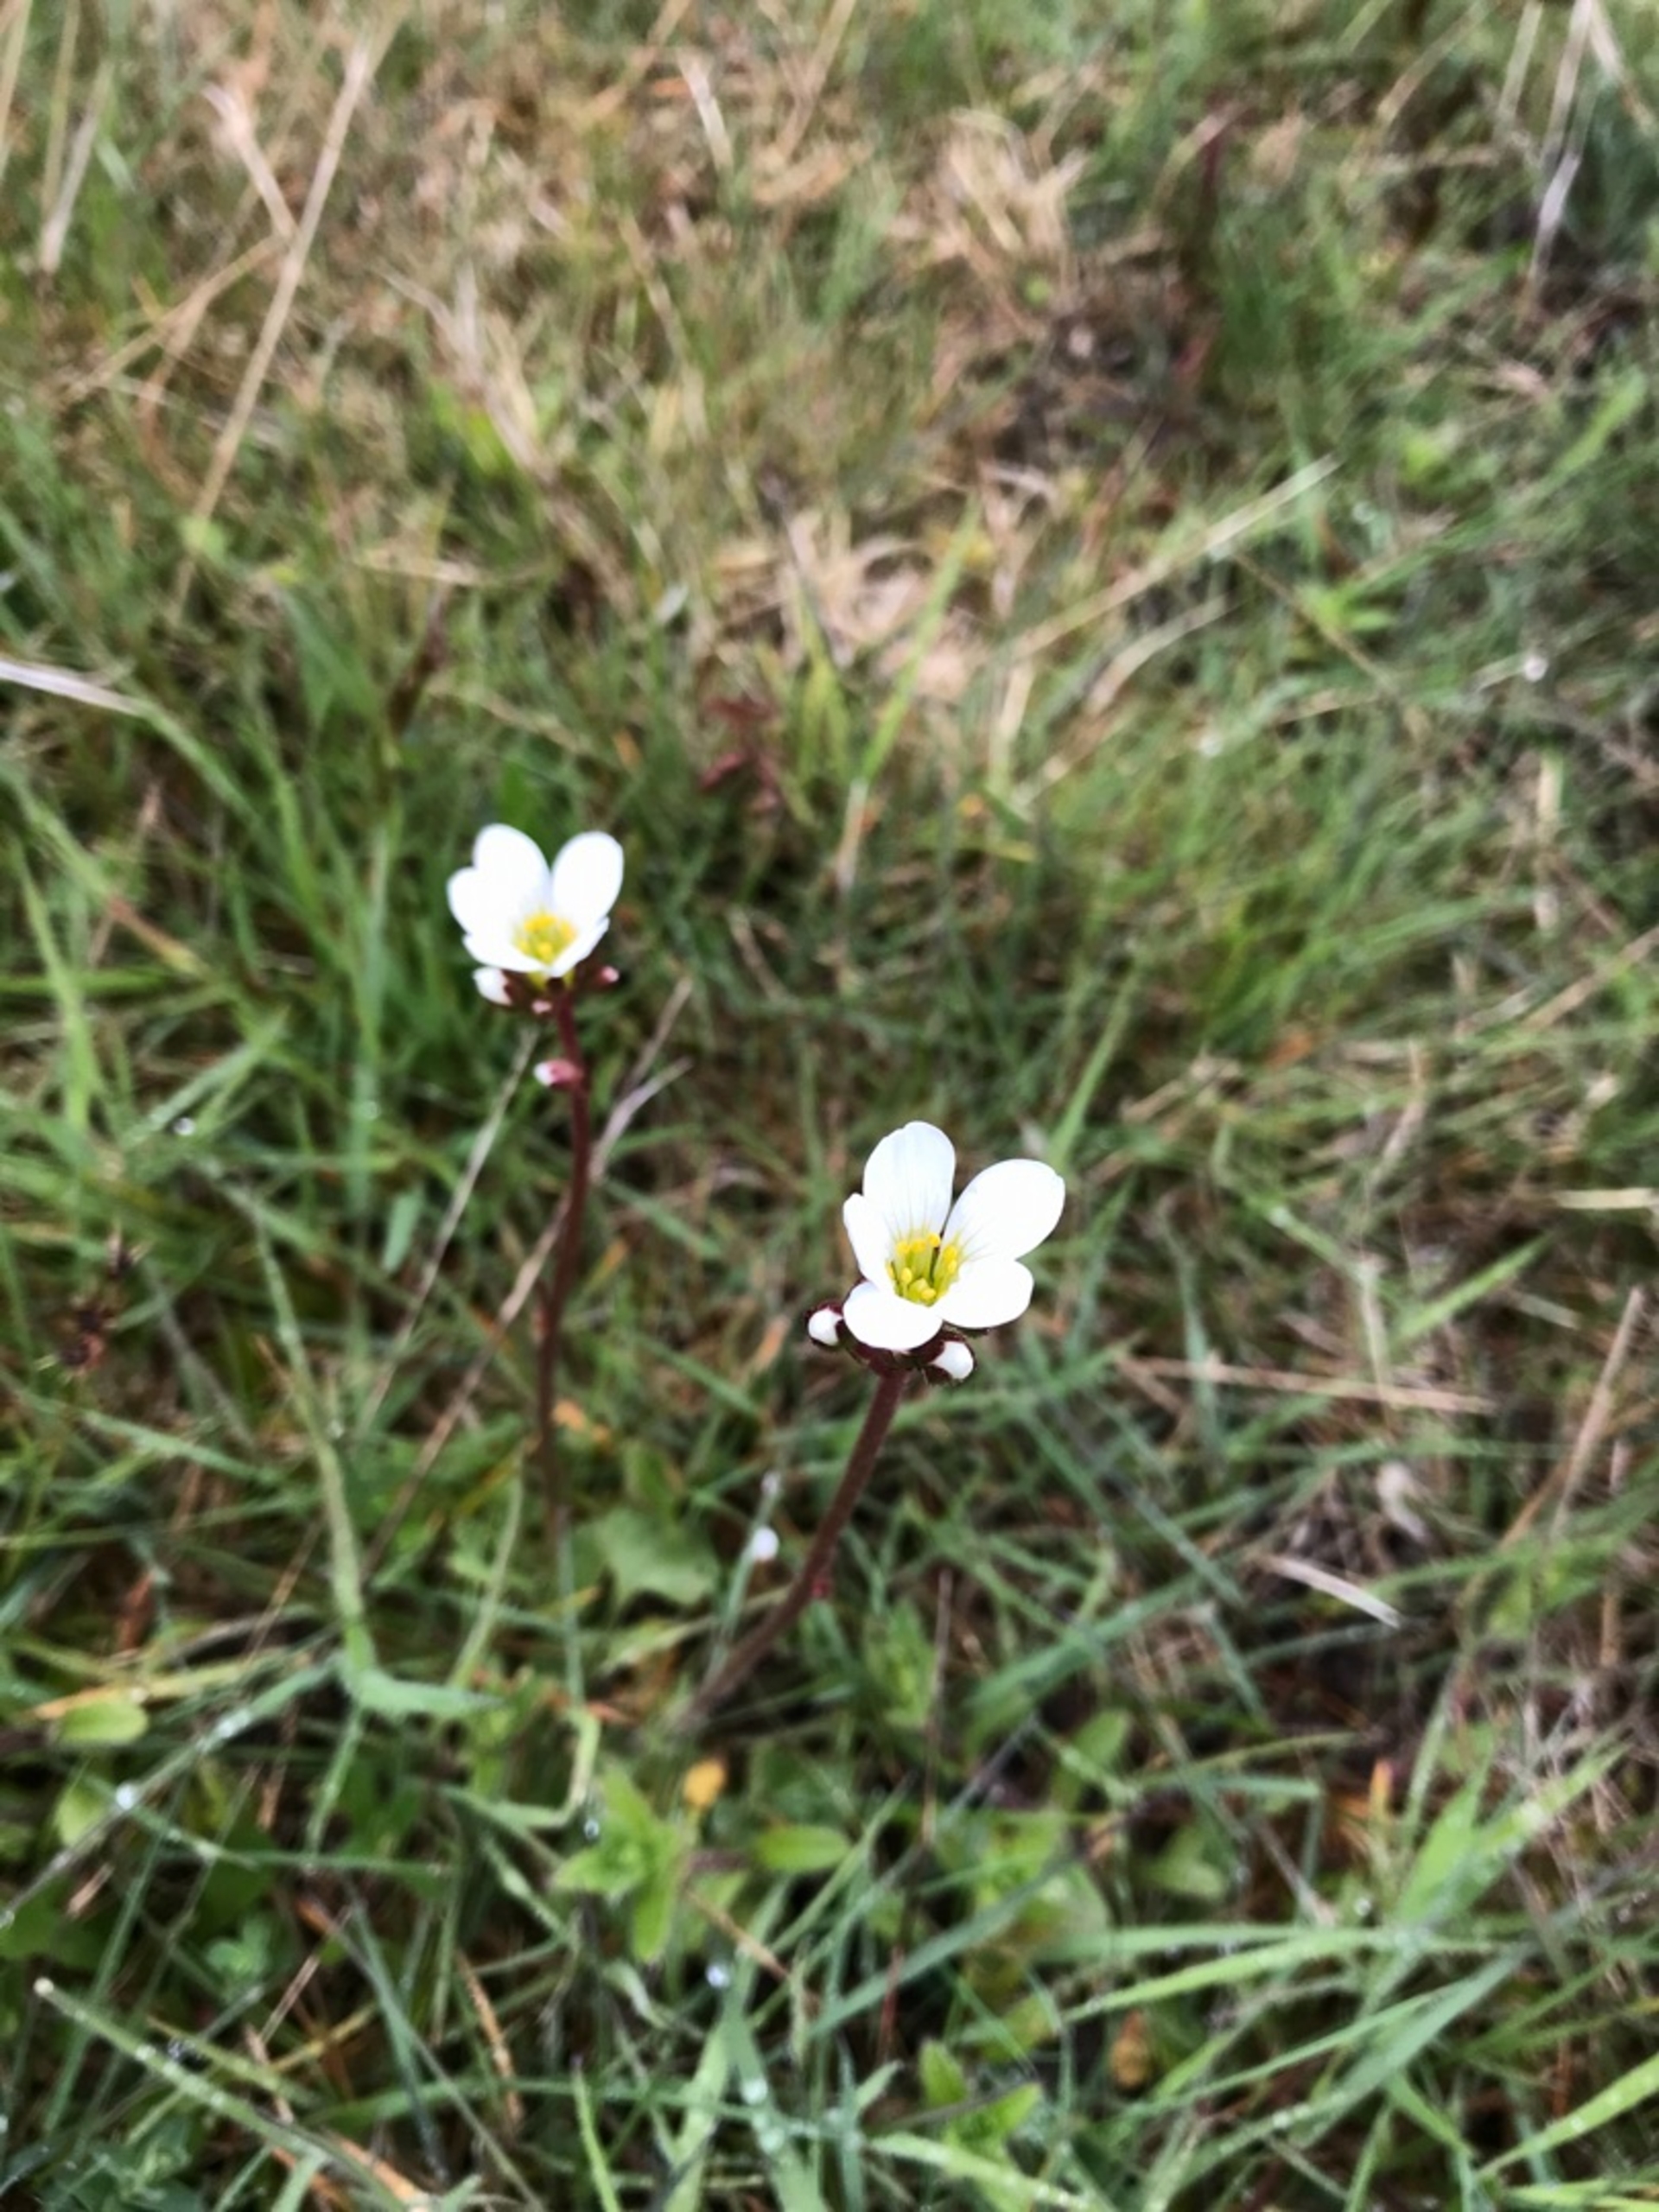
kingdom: Plantae
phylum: Tracheophyta
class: Magnoliopsida
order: Saxifragales
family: Saxifragaceae
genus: Saxifraga
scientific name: Saxifraga granulata
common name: Kornet stenbræk
